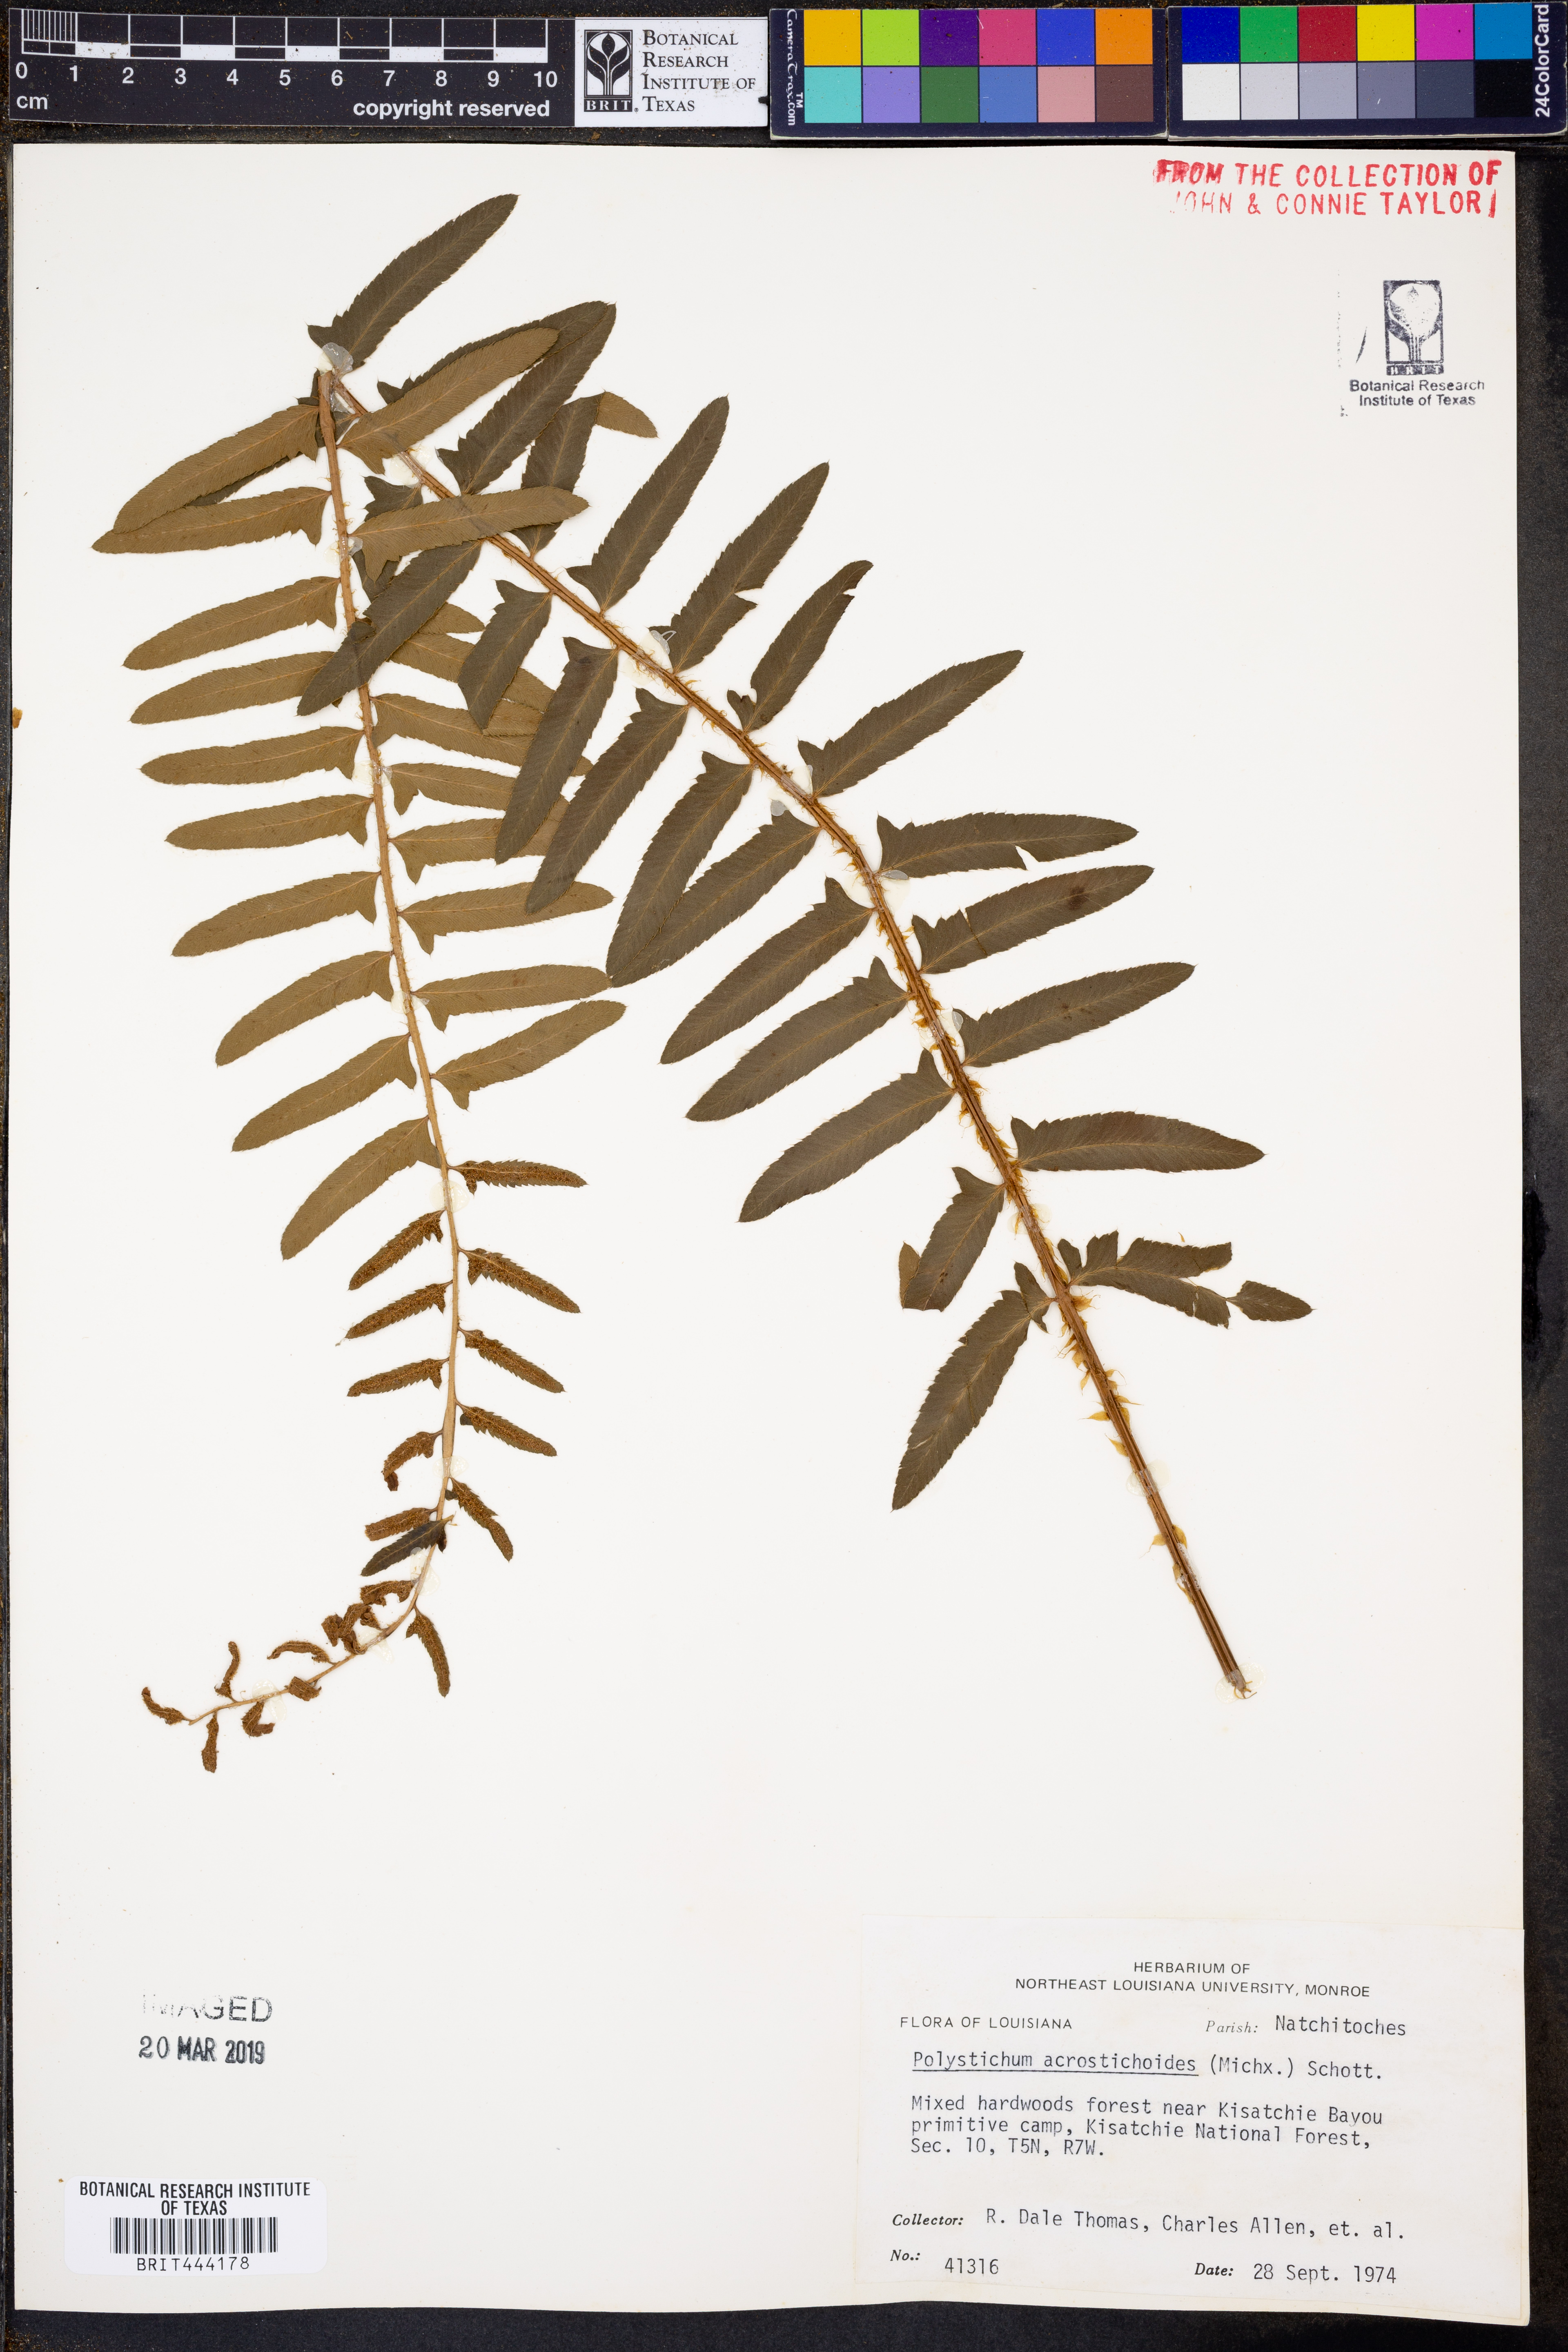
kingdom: Plantae
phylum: Tracheophyta
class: Polypodiopsida
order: Polypodiales
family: Dryopteridaceae
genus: Polystichum
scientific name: Polystichum acrostichoides
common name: Christmas fern
